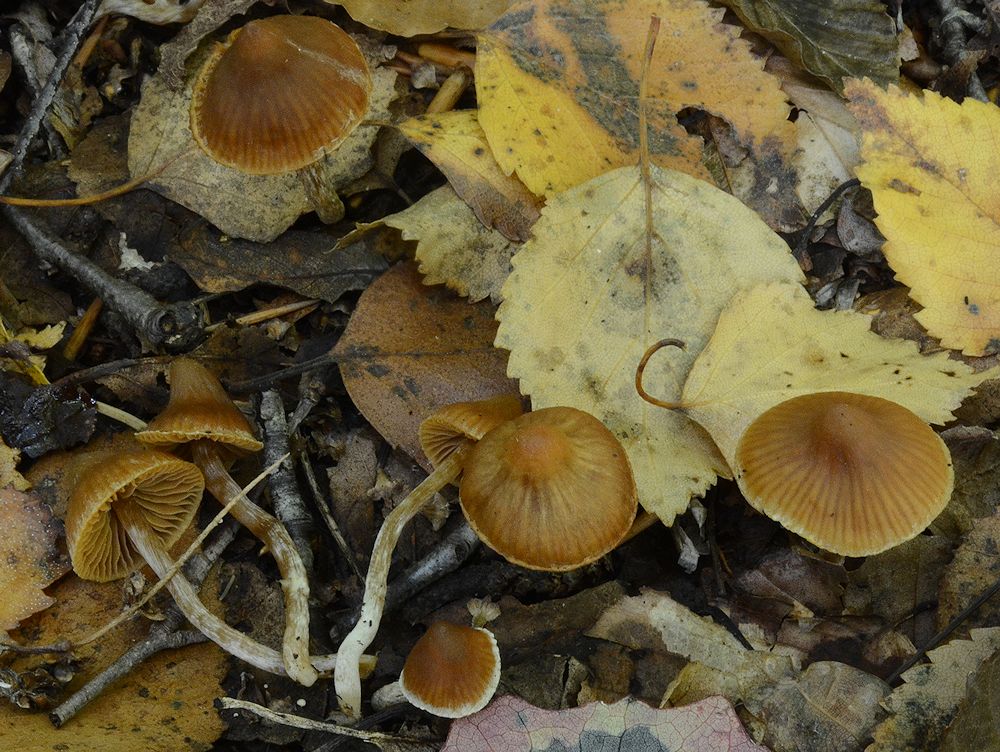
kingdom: Fungi
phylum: Basidiomycota
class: Agaricomycetes
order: Agaricales
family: Cortinariaceae
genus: Cortinarius
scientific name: Cortinarius
